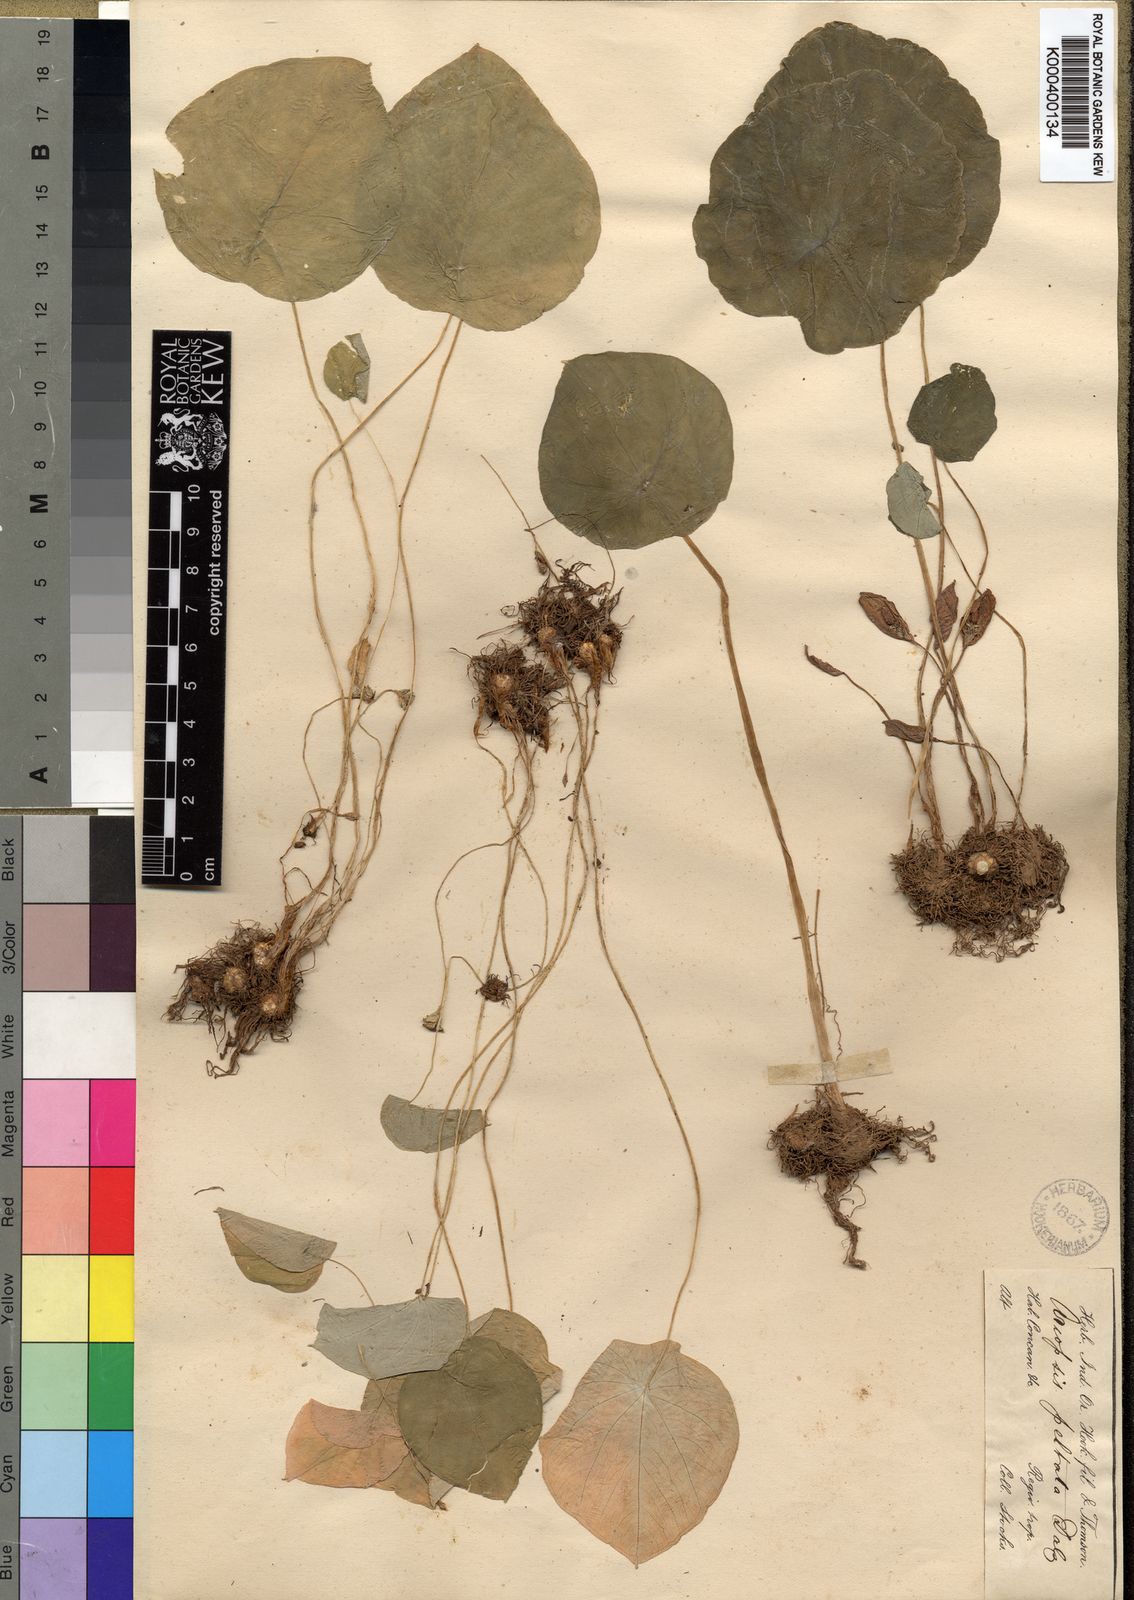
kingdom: Plantae
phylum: Tracheophyta
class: Liliopsida
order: Alismatales
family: Araceae
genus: Ariopsis
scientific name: Ariopsis peltata
